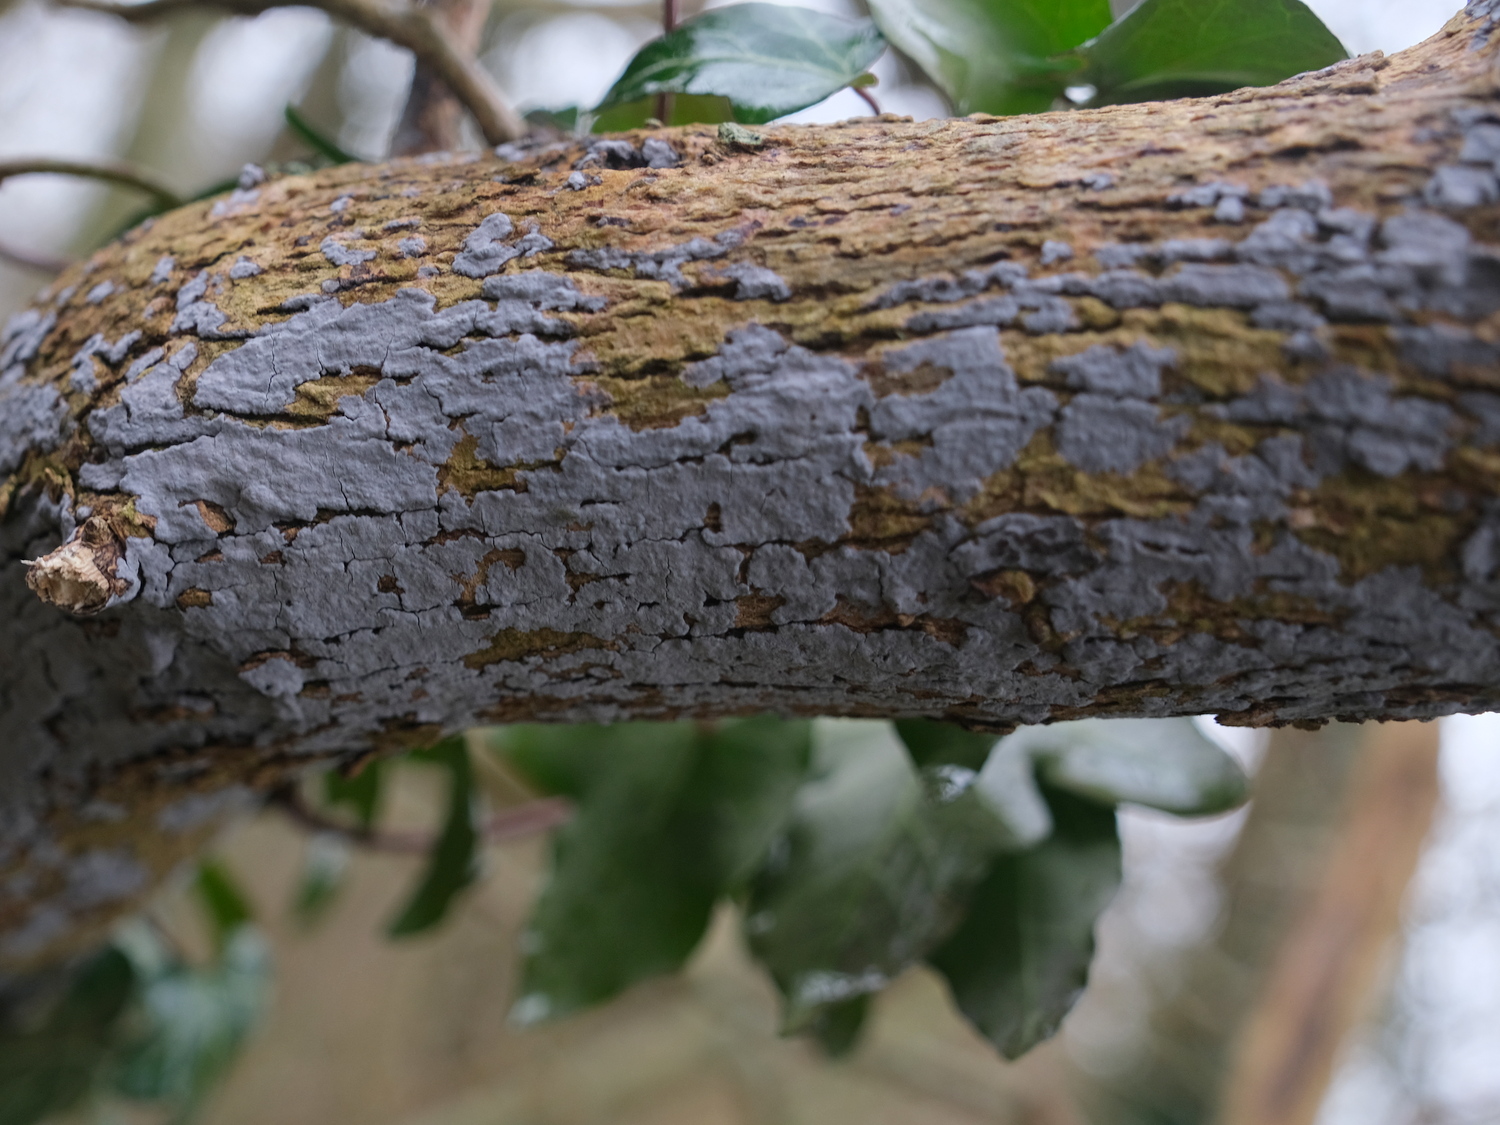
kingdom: Fungi
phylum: Basidiomycota
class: Agaricomycetes
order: Russulales
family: Peniophoraceae
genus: Peniophora
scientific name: Peniophora lycii
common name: grynet voksskind
